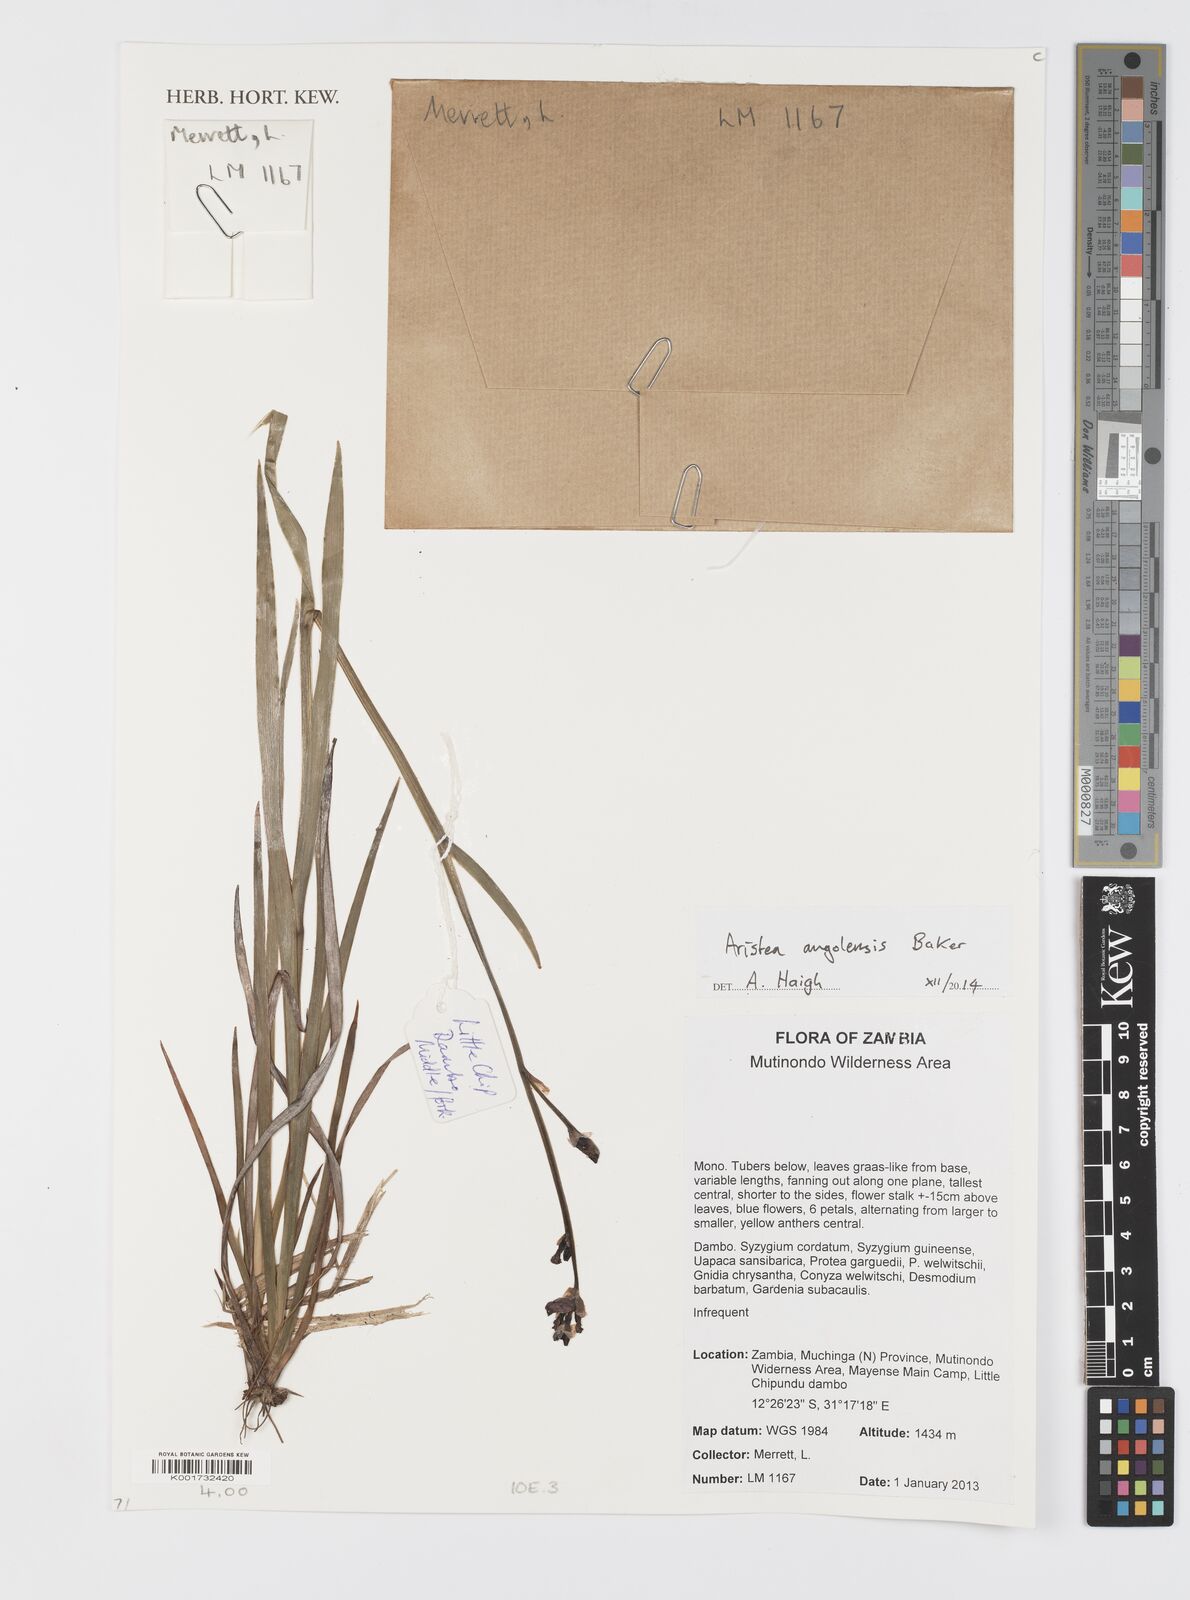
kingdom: Plantae
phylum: Tracheophyta
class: Liliopsida
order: Asparagales
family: Iridaceae
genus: Aristea
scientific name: Aristea angolensis
